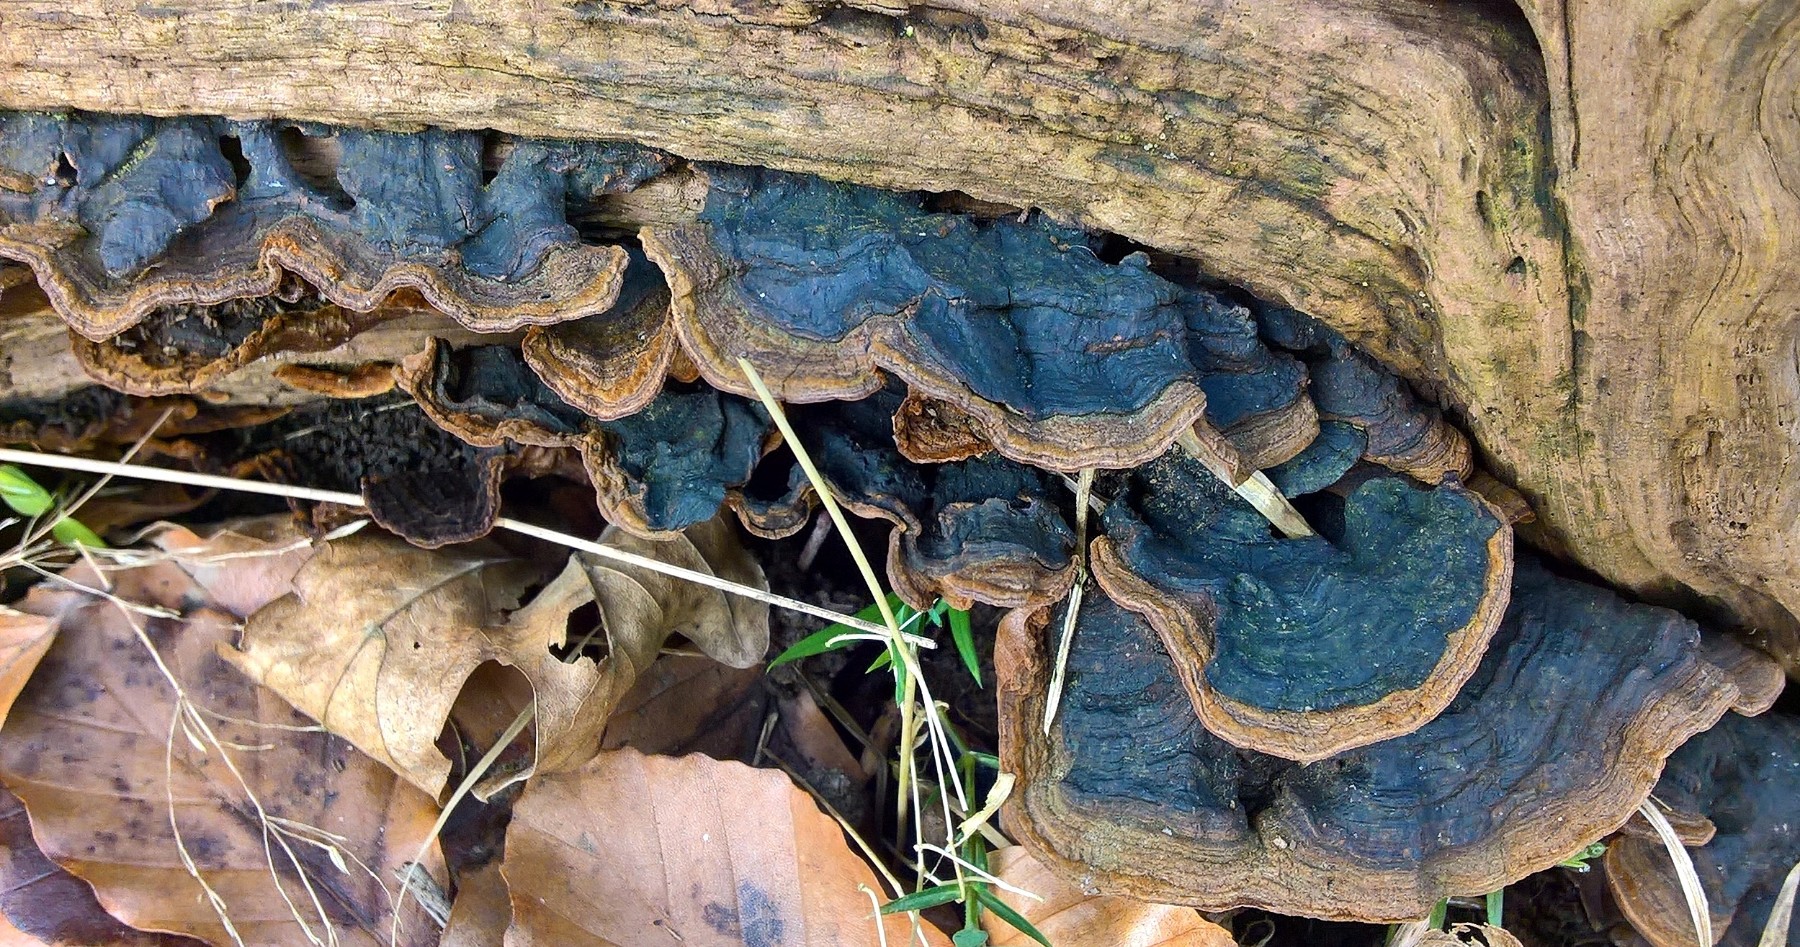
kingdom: Fungi
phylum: Basidiomycota
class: Agaricomycetes
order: Hymenochaetales
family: Hymenochaetaceae
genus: Hymenochaete
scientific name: Hymenochaete rubiginosa
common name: stiv ruslædersvamp
